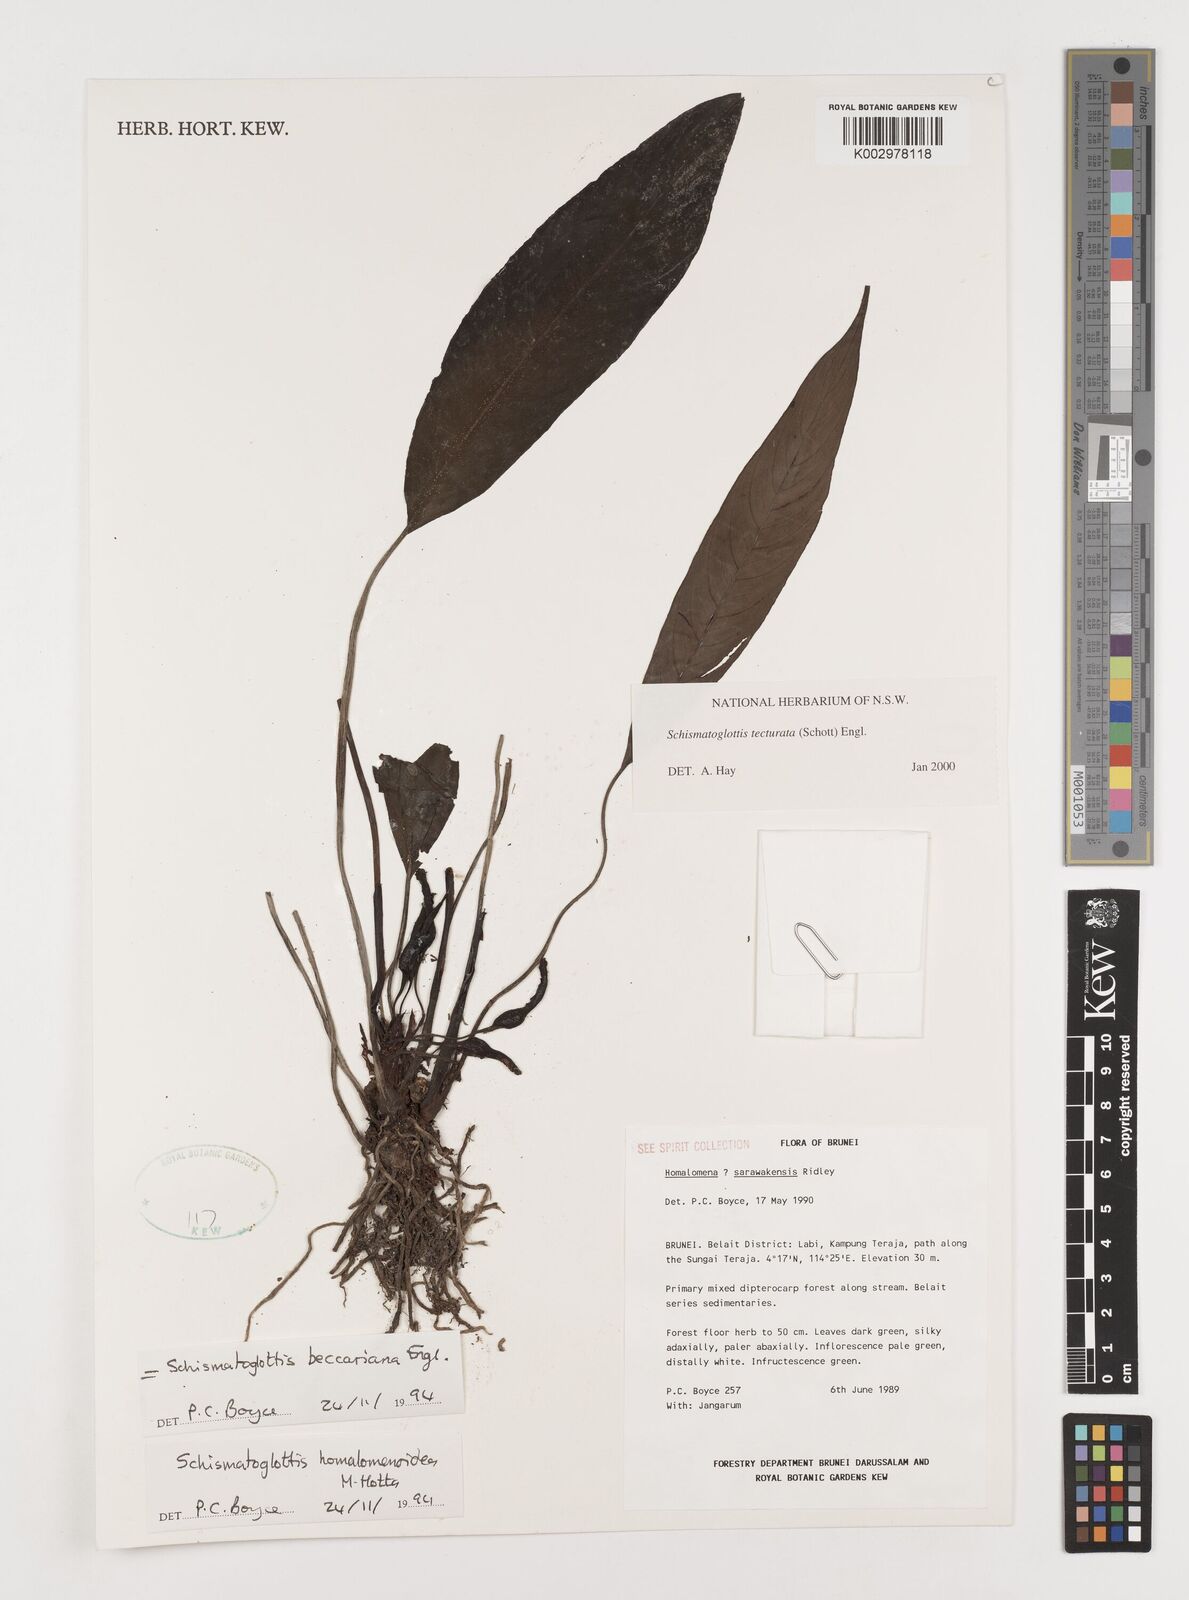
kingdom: Plantae
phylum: Tracheophyta
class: Liliopsida
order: Zingiberales
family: Costaceae
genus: Colobogynium
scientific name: Colobogynium variegatum
